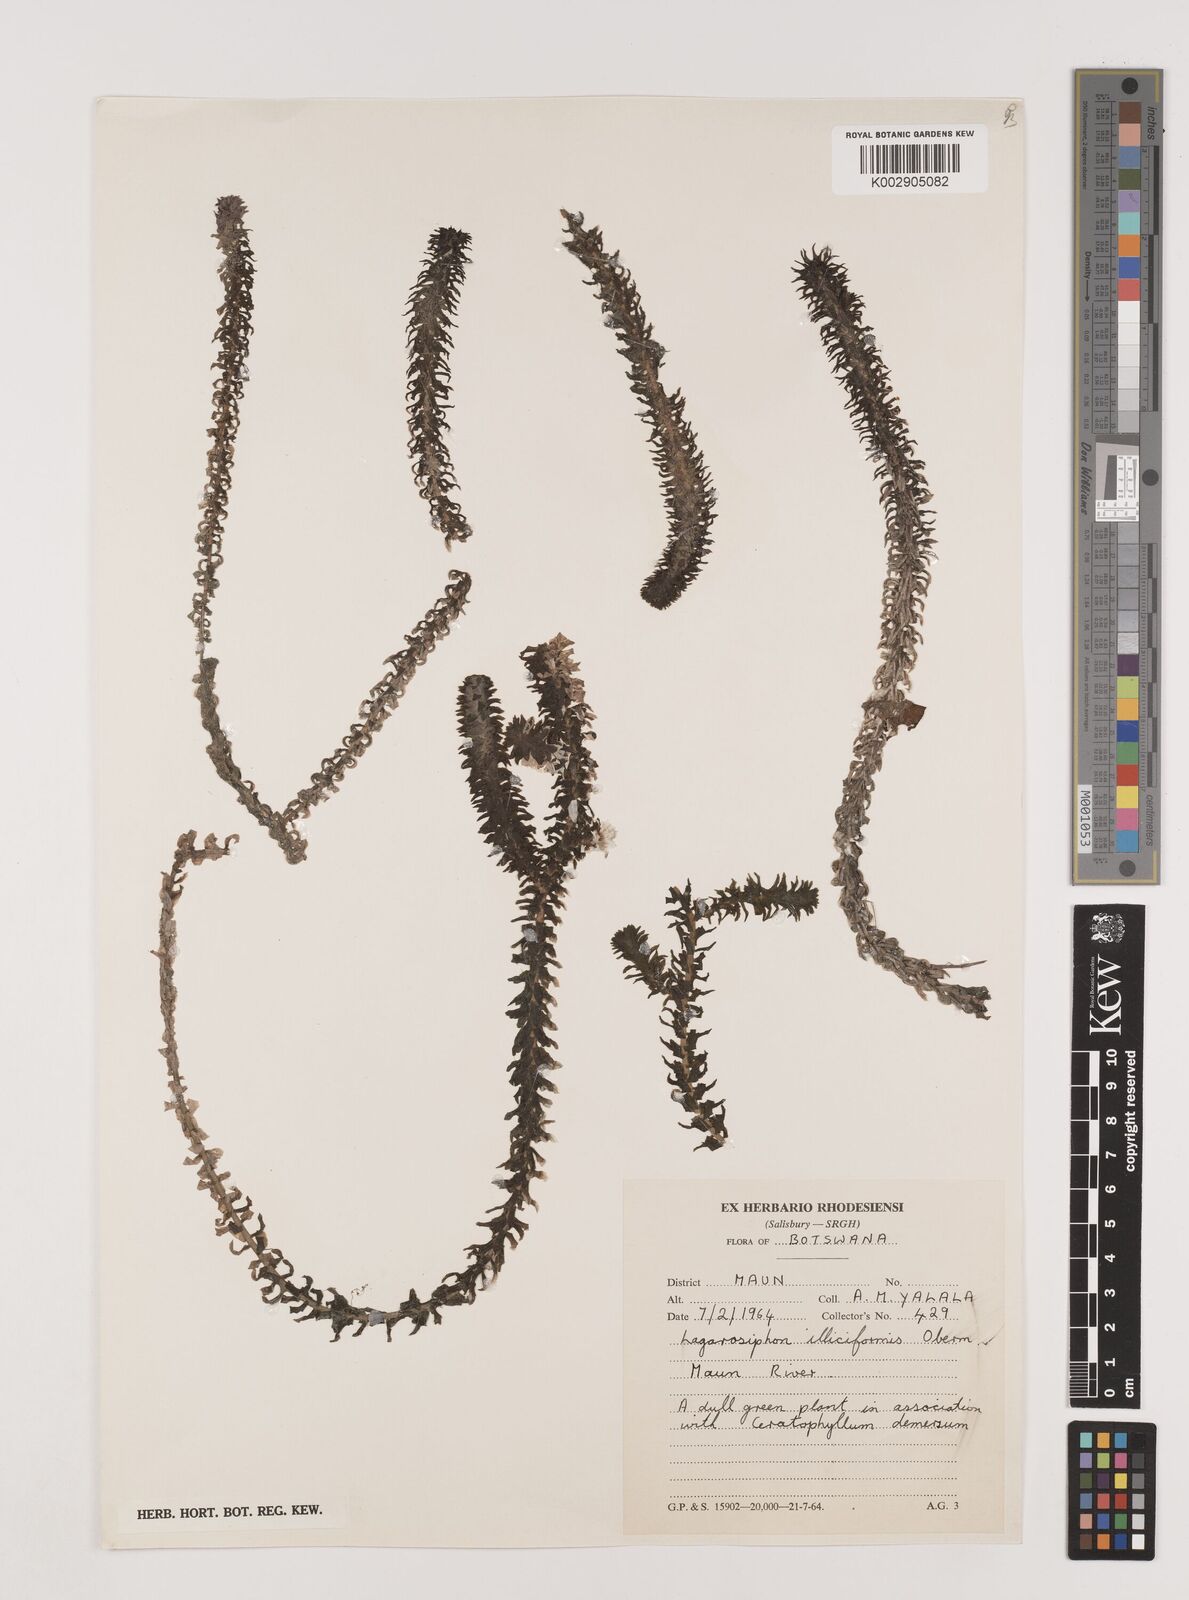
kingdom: Plantae
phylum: Tracheophyta
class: Liliopsida
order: Alismatales
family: Hydrocharitaceae
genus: Lagarosiphon
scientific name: Lagarosiphon ilicifolius
